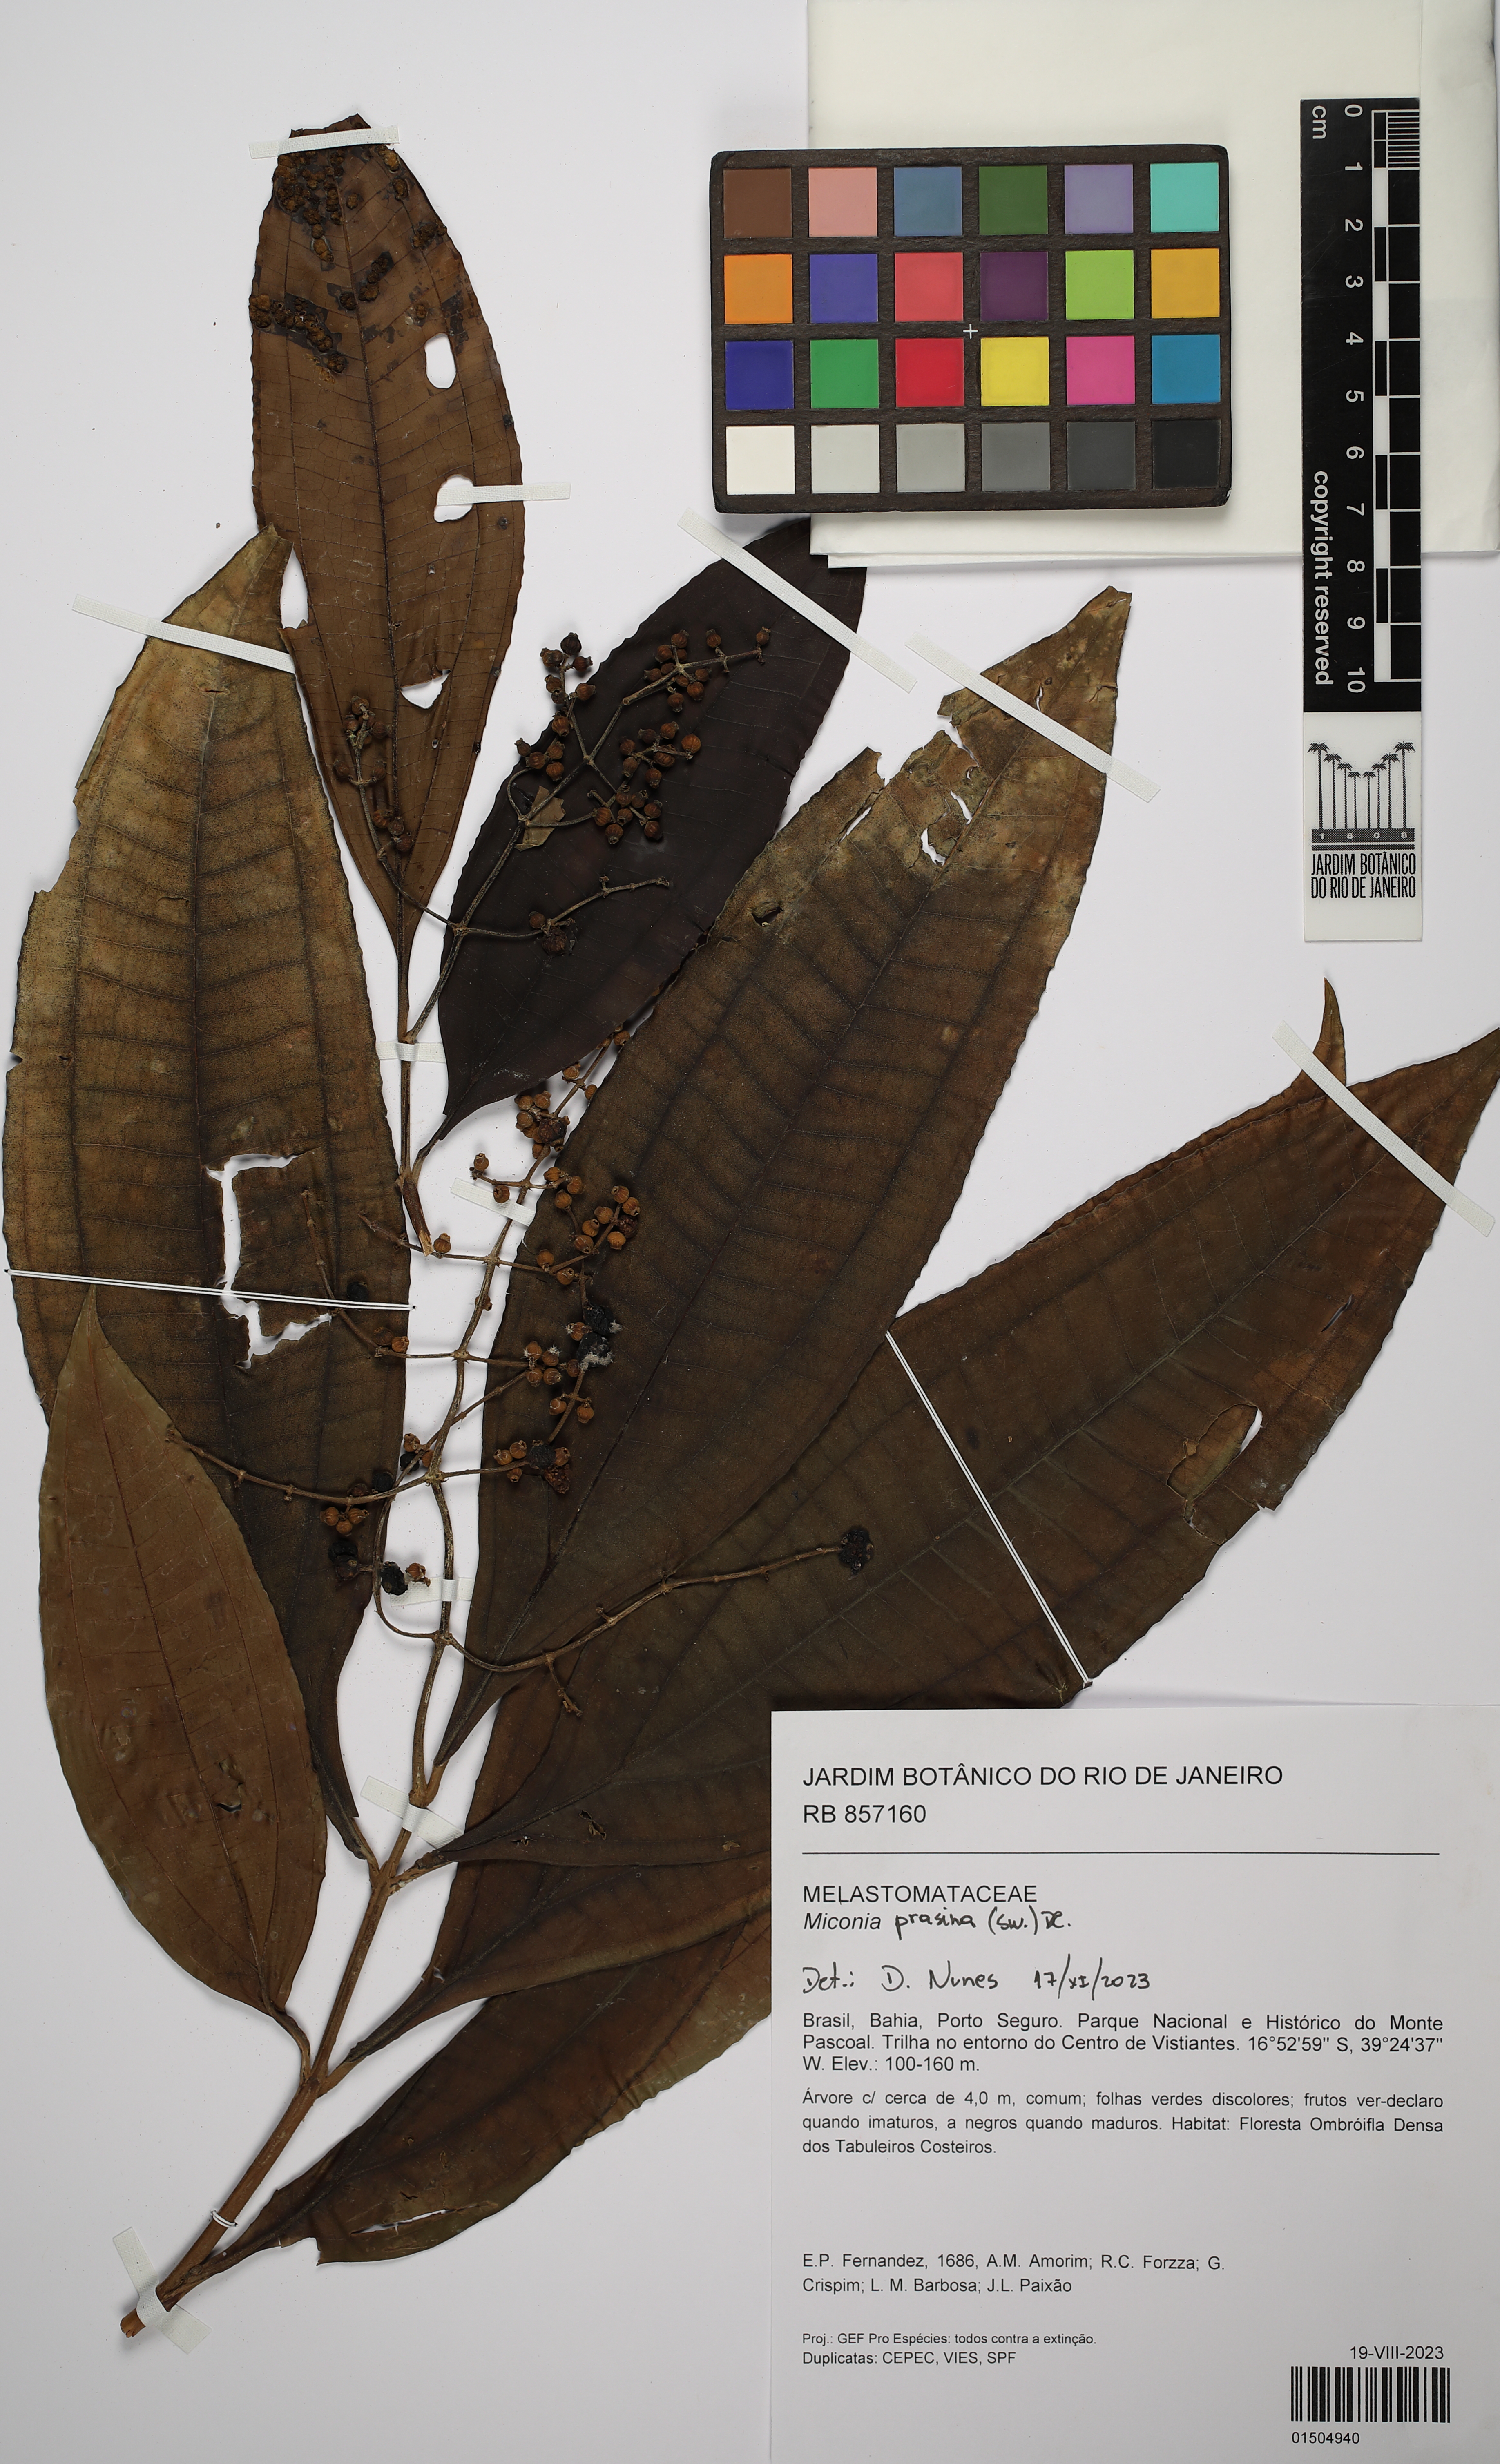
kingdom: Plantae
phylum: Tracheophyta
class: Magnoliopsida
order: Myrtales
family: Melastomataceae
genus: Miconia
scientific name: Miconia prasina
